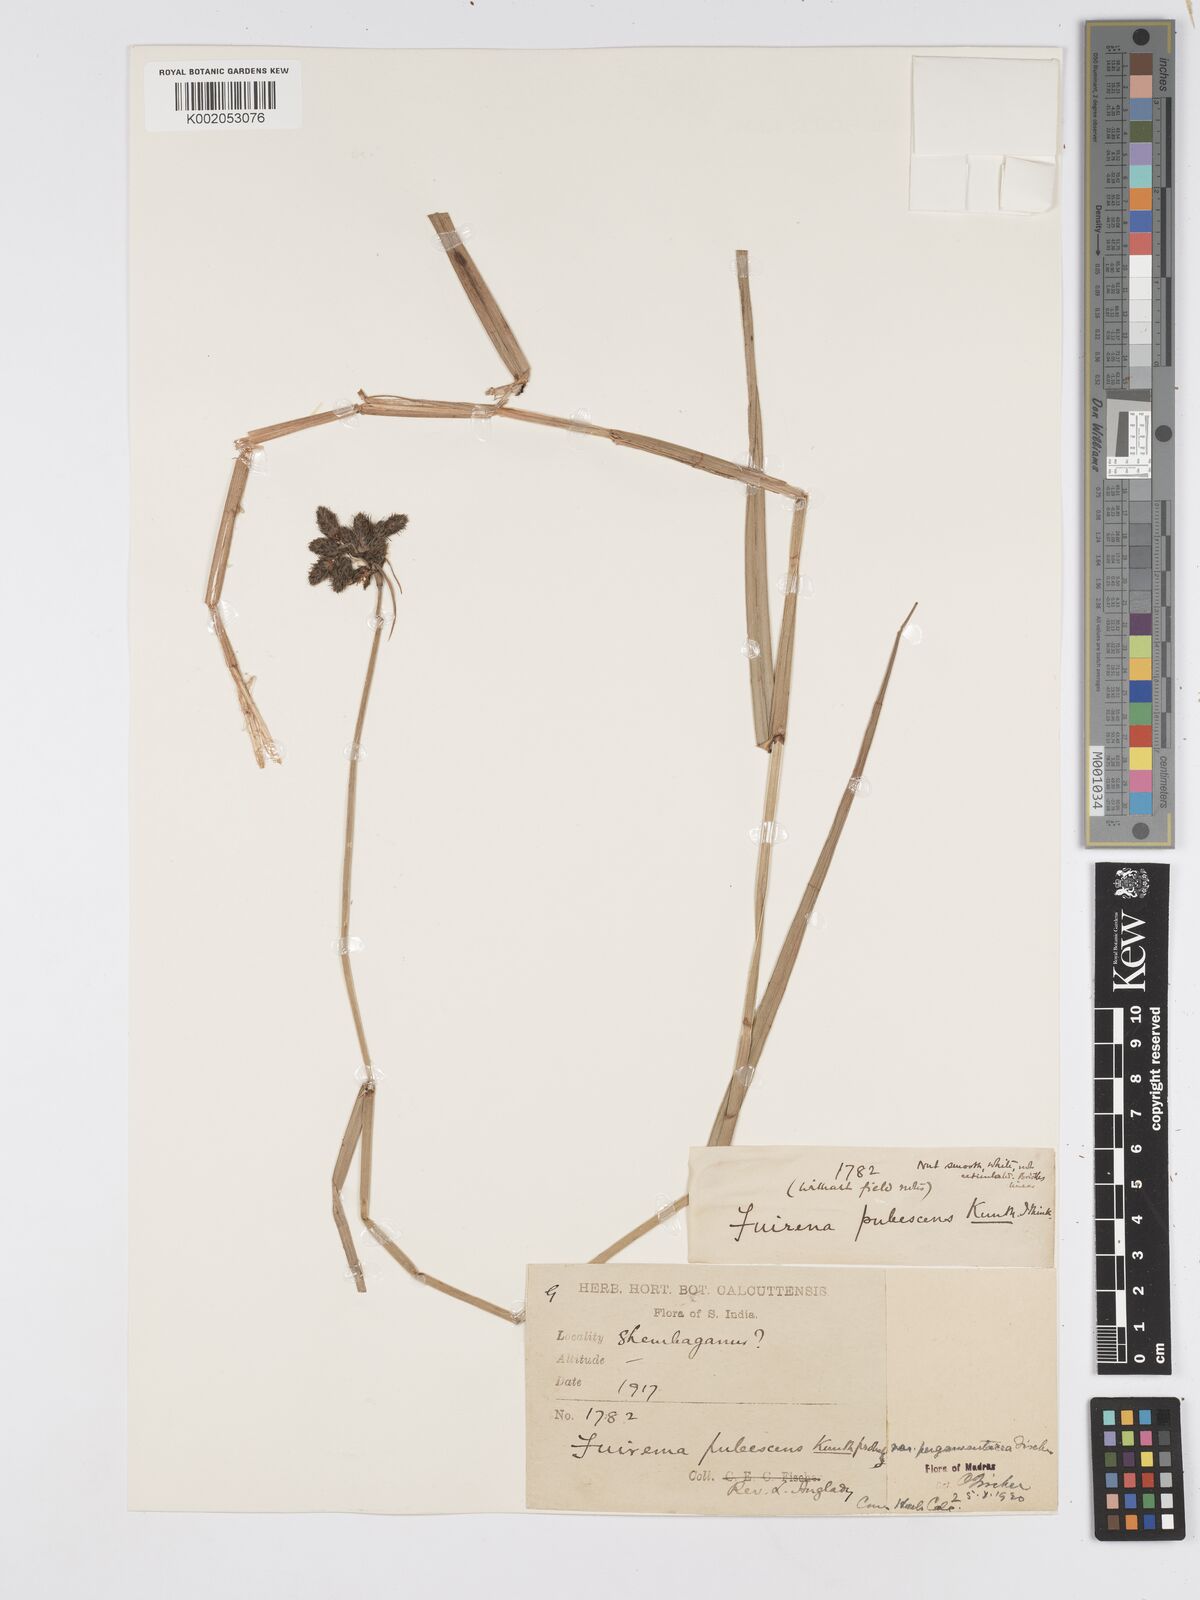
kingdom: Plantae
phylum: Tracheophyta
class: Liliopsida
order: Poales
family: Cyperaceae
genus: Fuirena
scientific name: Fuirena pubescens
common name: Hairy sedge
